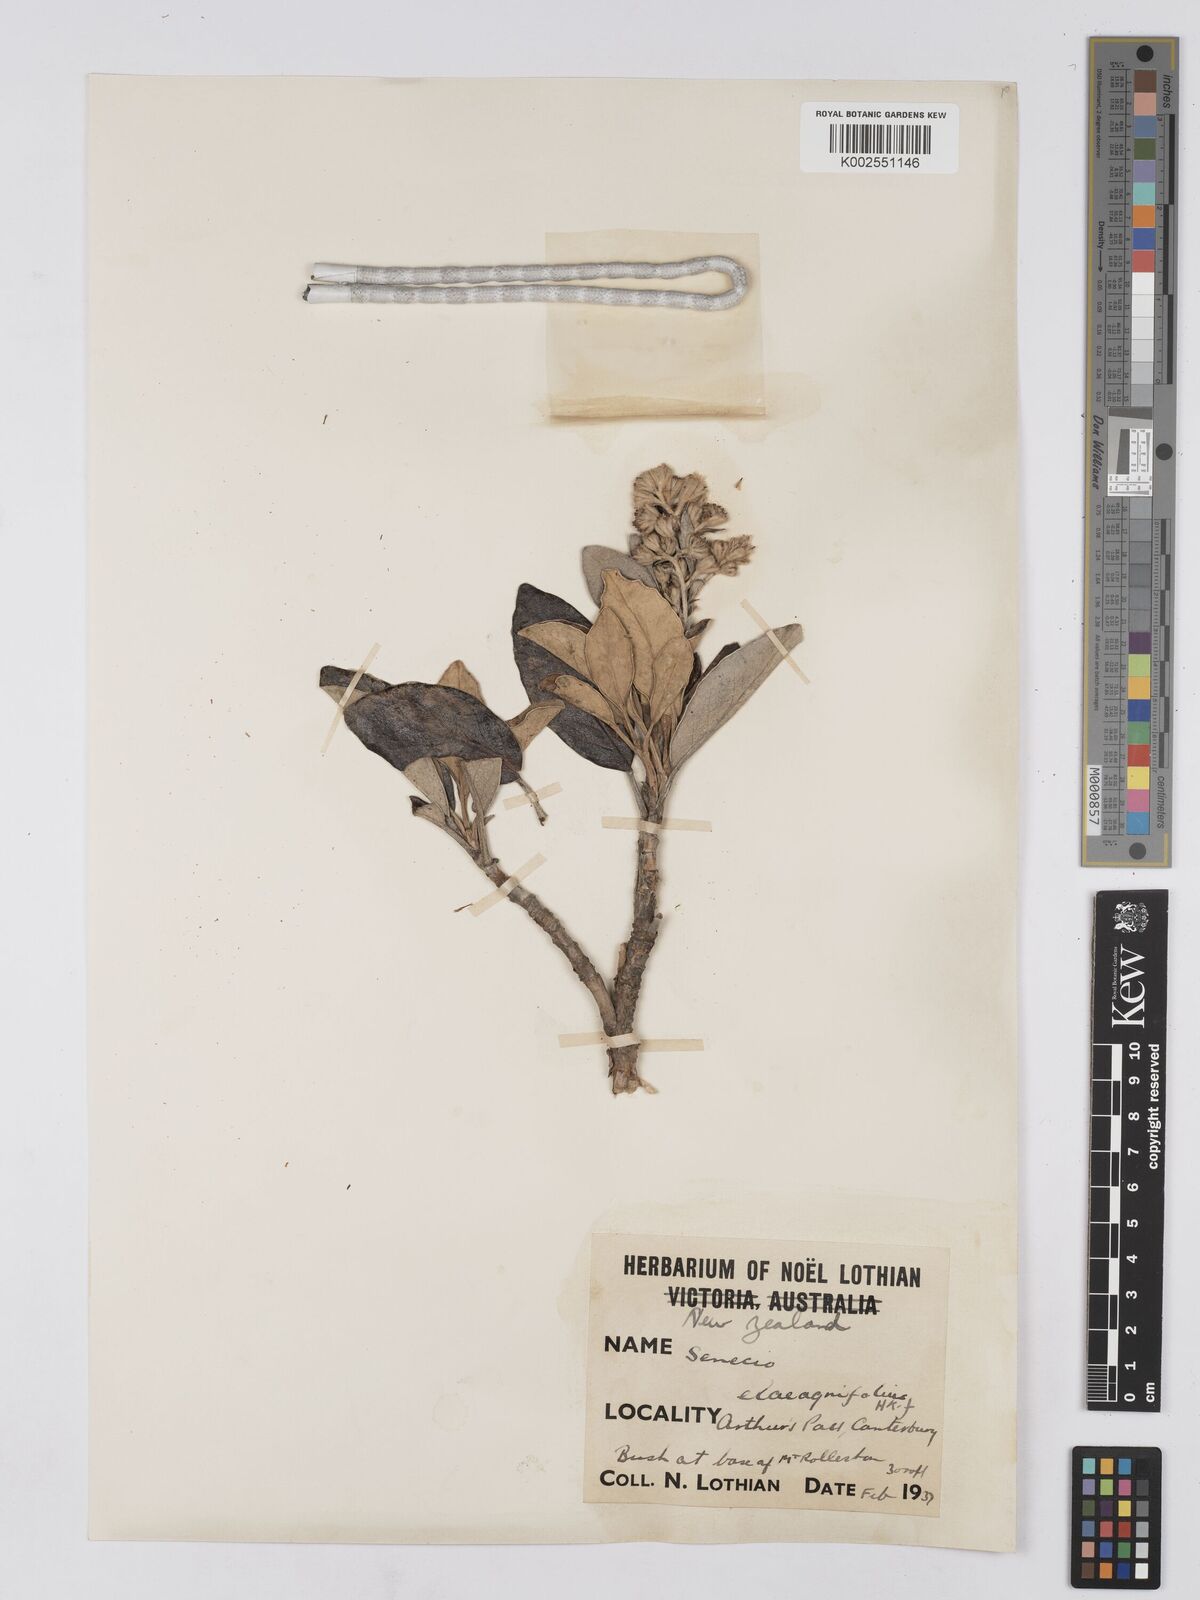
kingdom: Plantae
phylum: Tracheophyta
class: Magnoliopsida
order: Asterales
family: Asteraceae
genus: Brachyglottis
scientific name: Brachyglottis buchananii
